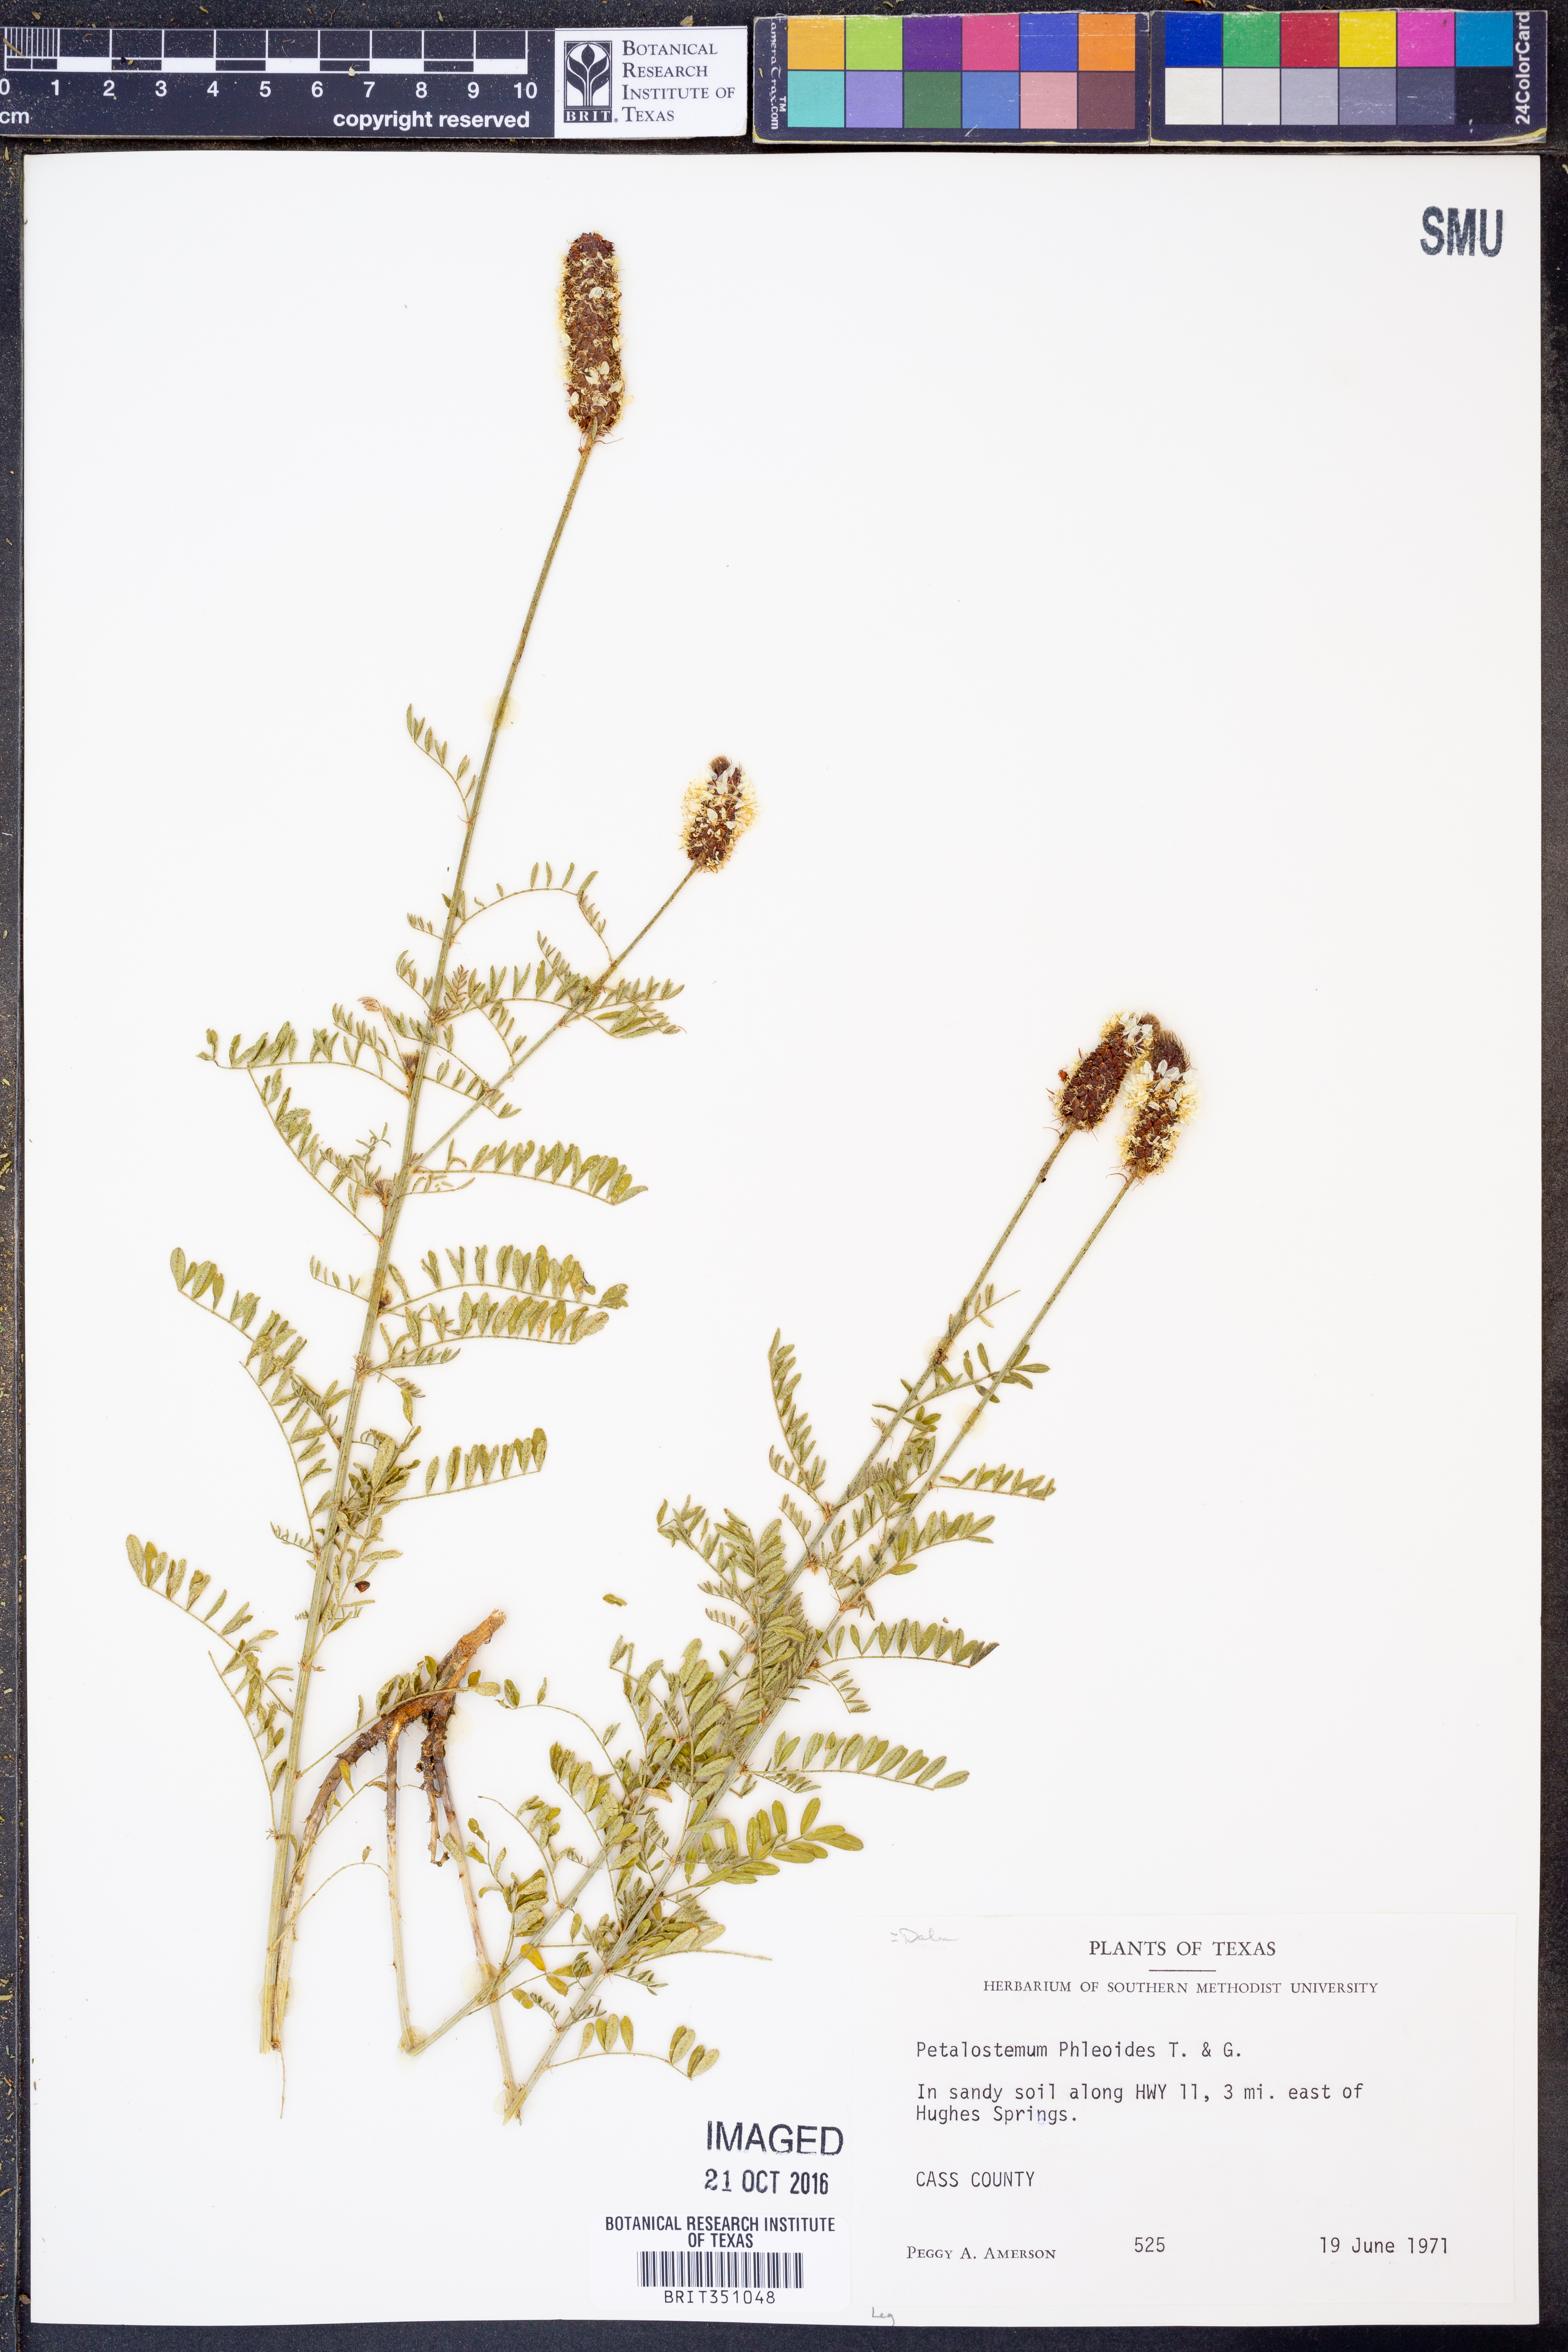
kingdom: Plantae
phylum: Tracheophyta
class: Magnoliopsida
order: Fabales
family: Fabaceae
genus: Dalea
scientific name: Dalea phleoides
